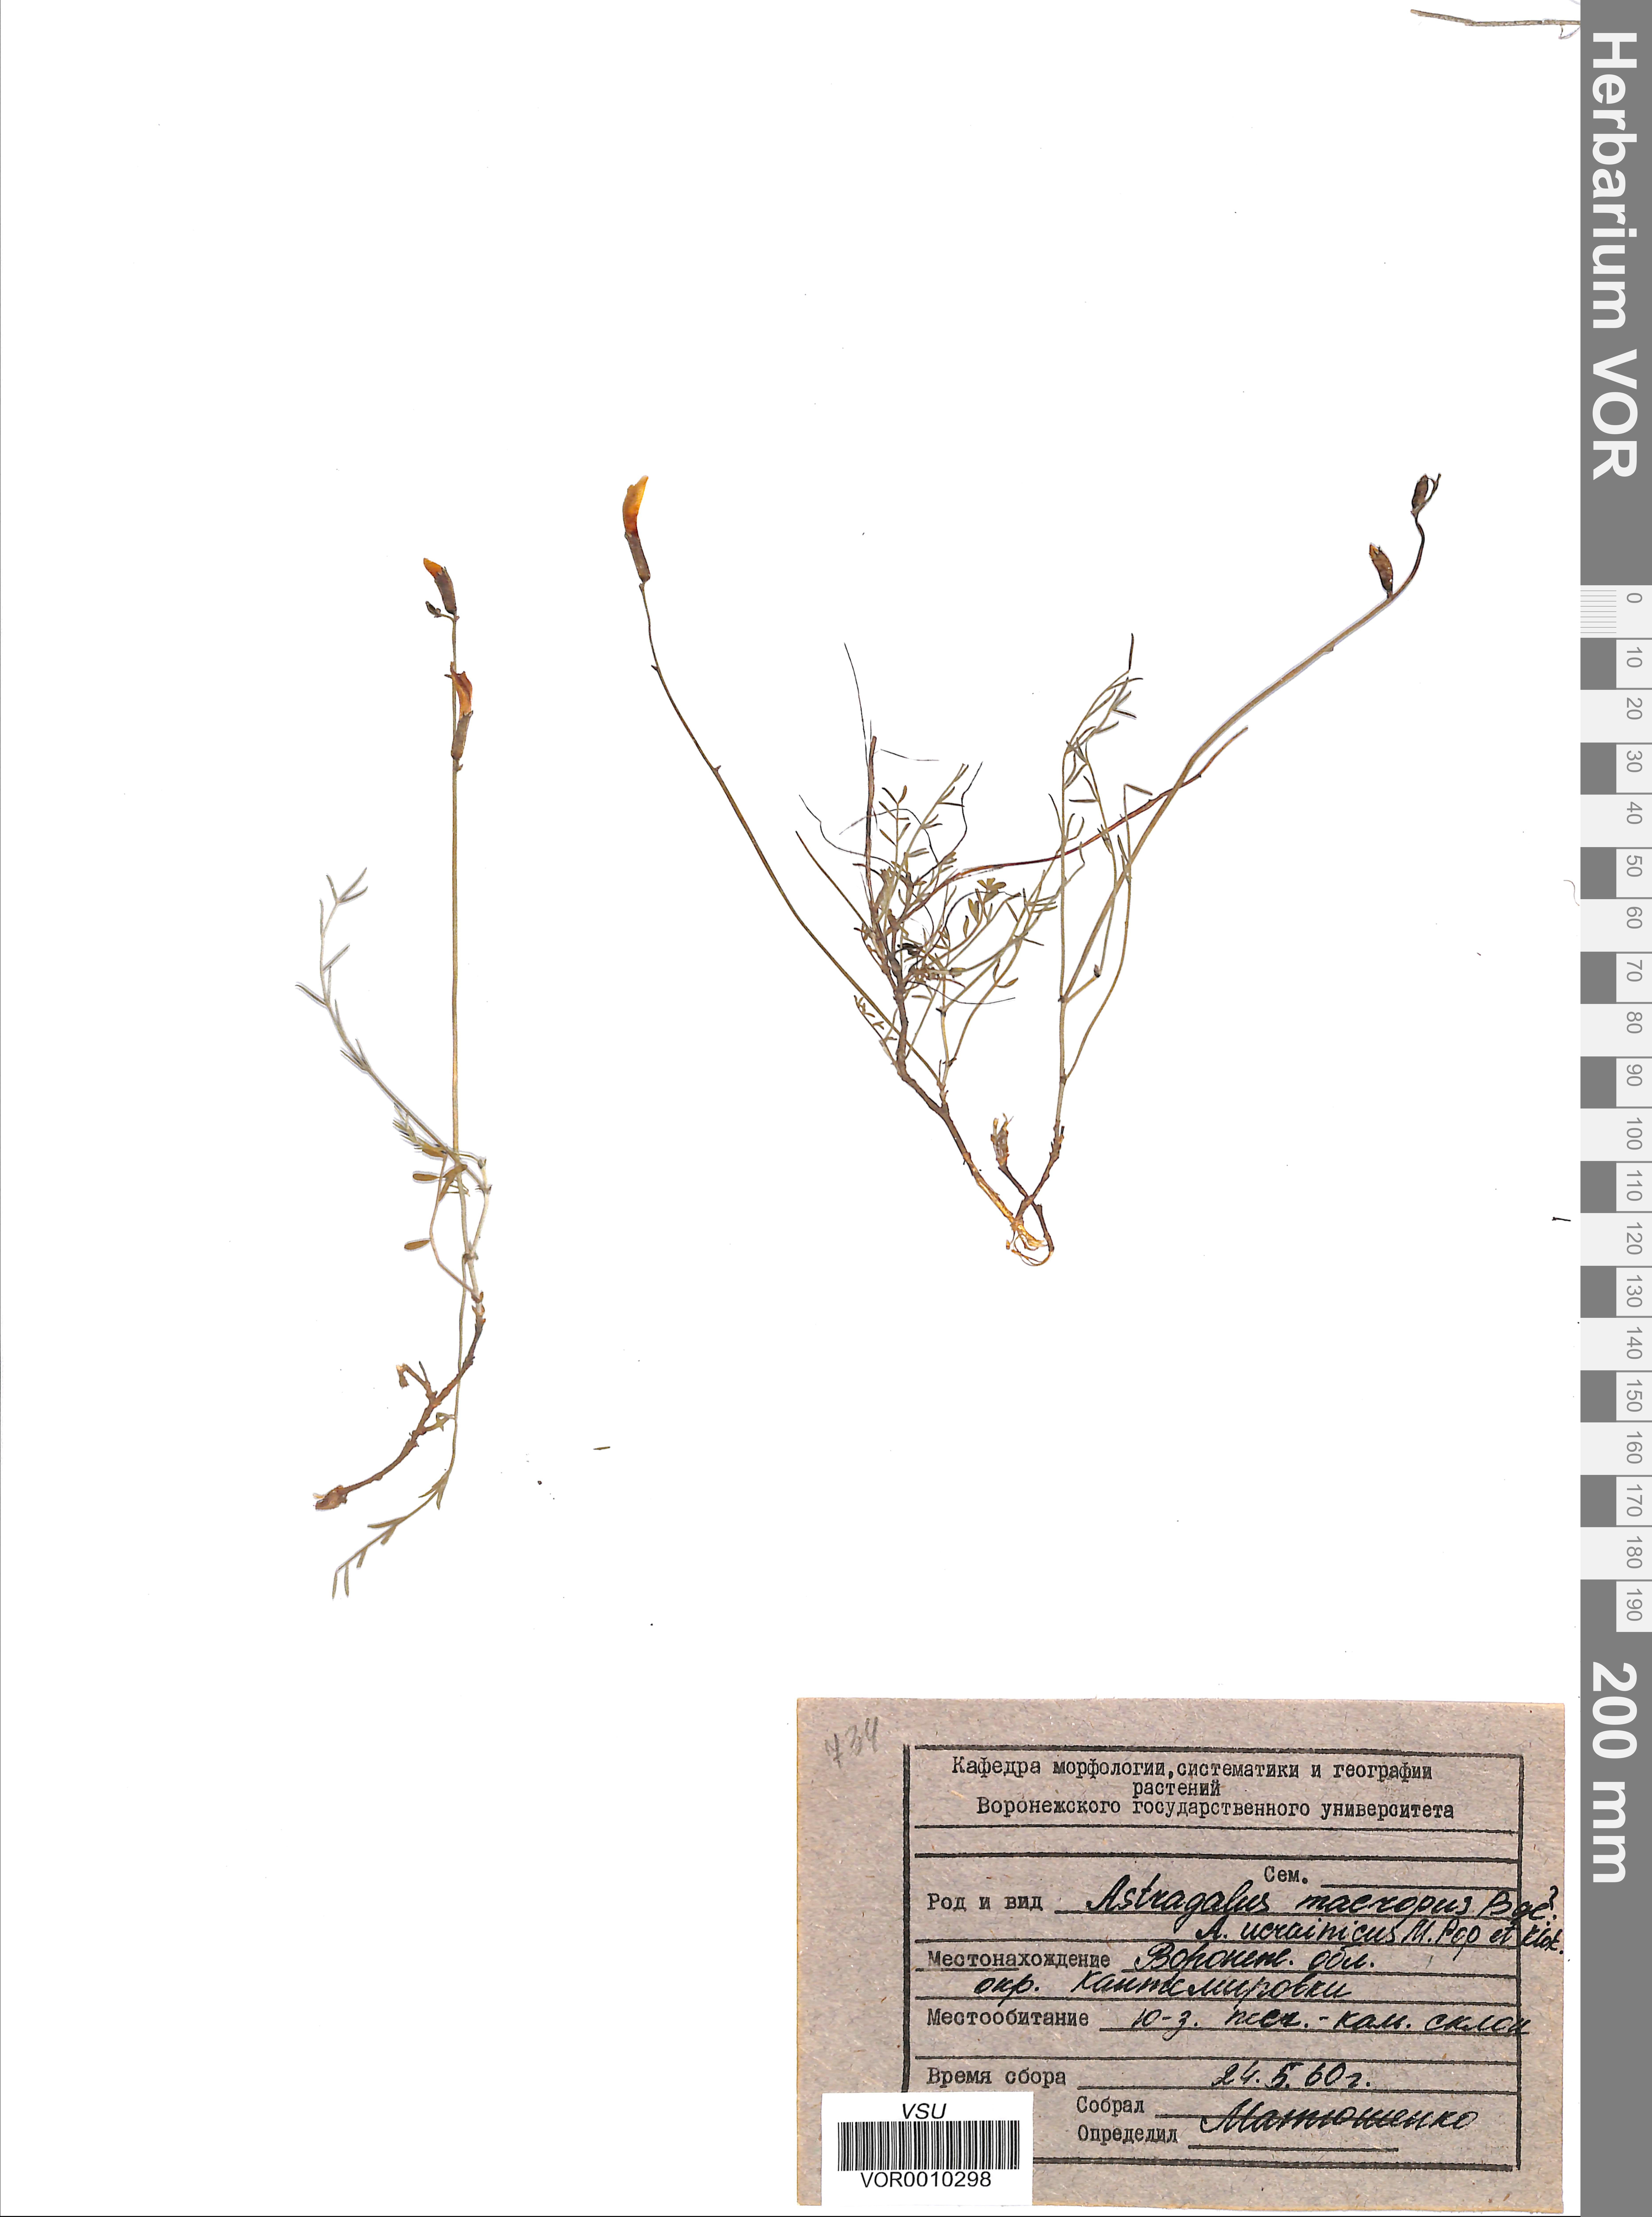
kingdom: Plantae
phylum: Tracheophyta
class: Magnoliopsida
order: Fabales
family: Fabaceae
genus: Astragalus
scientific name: Astragalus ucrainicus
